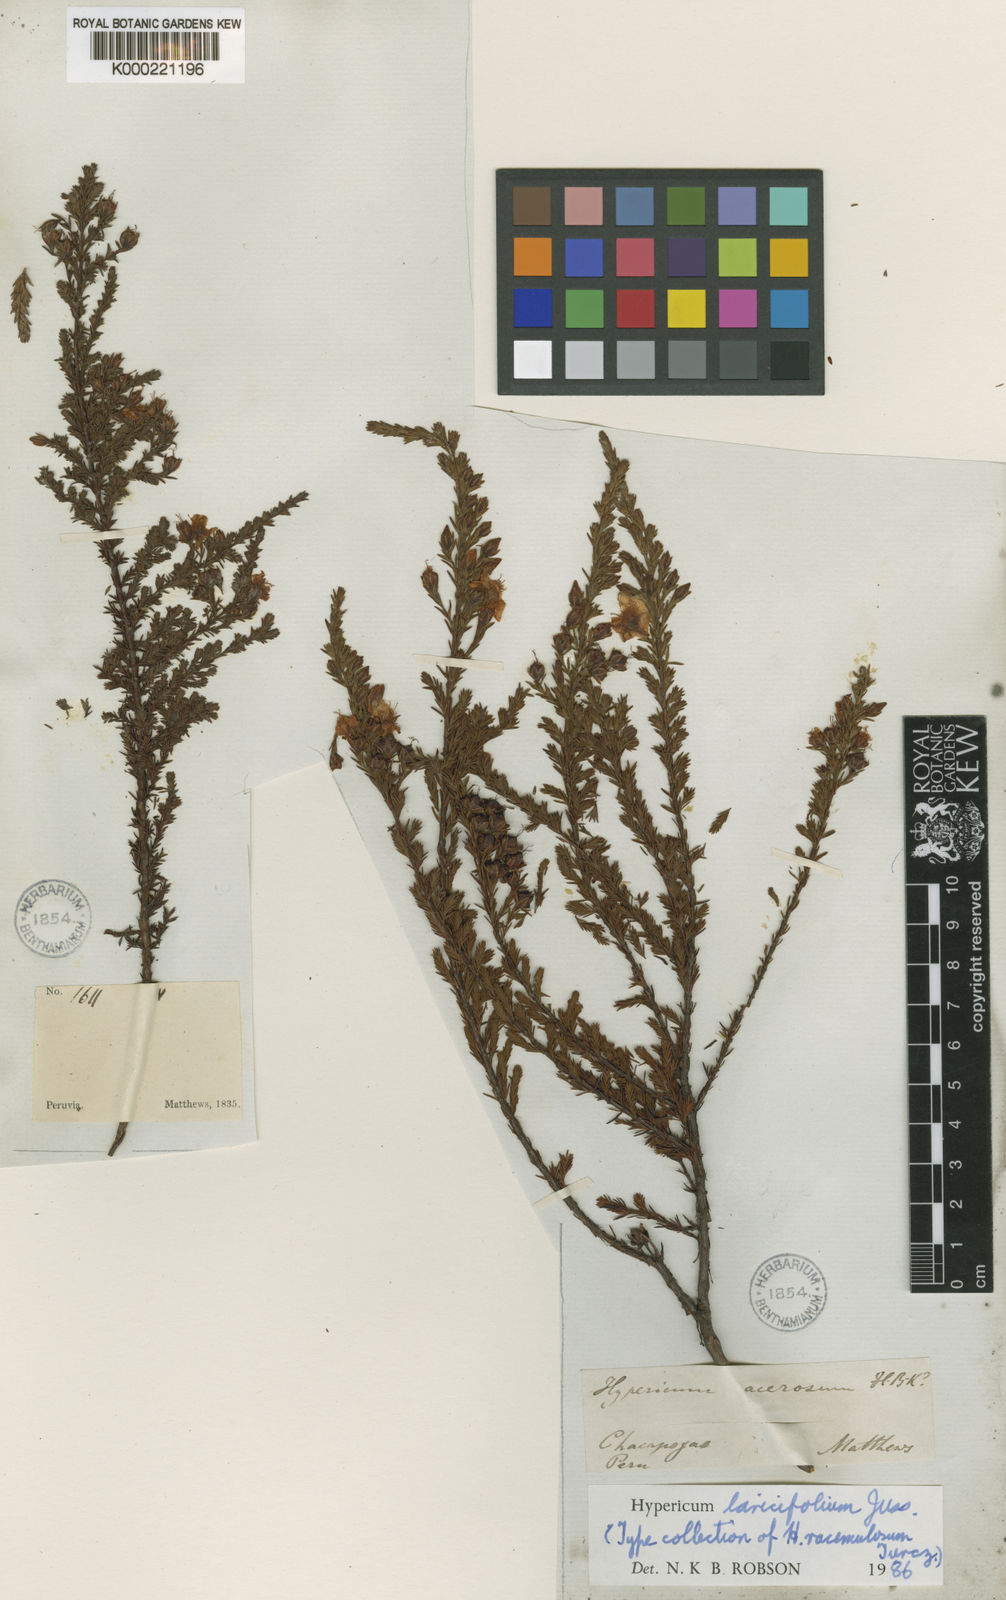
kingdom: Plantae
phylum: Tracheophyta
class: Magnoliopsida
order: Malpighiales
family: Hypericaceae
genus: Hypericum
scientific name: Hypericum laricifolium
